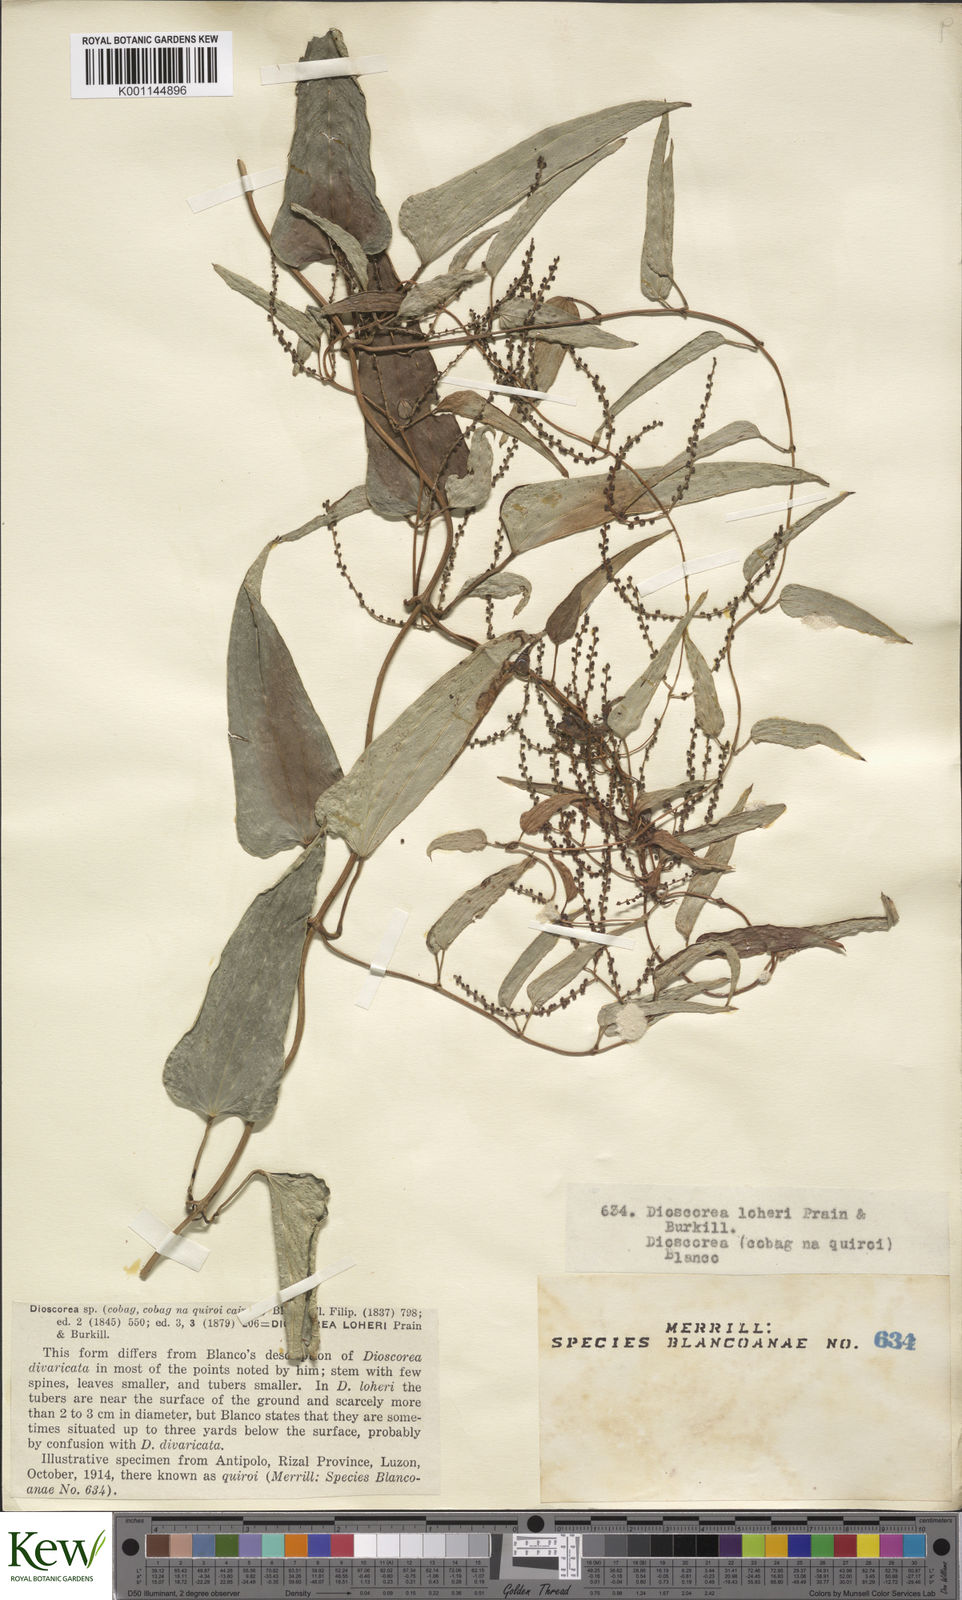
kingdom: Plantae
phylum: Tracheophyta
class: Liliopsida
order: Dioscoreales
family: Dioscoreaceae
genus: Dioscorea
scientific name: Dioscorea loheri
